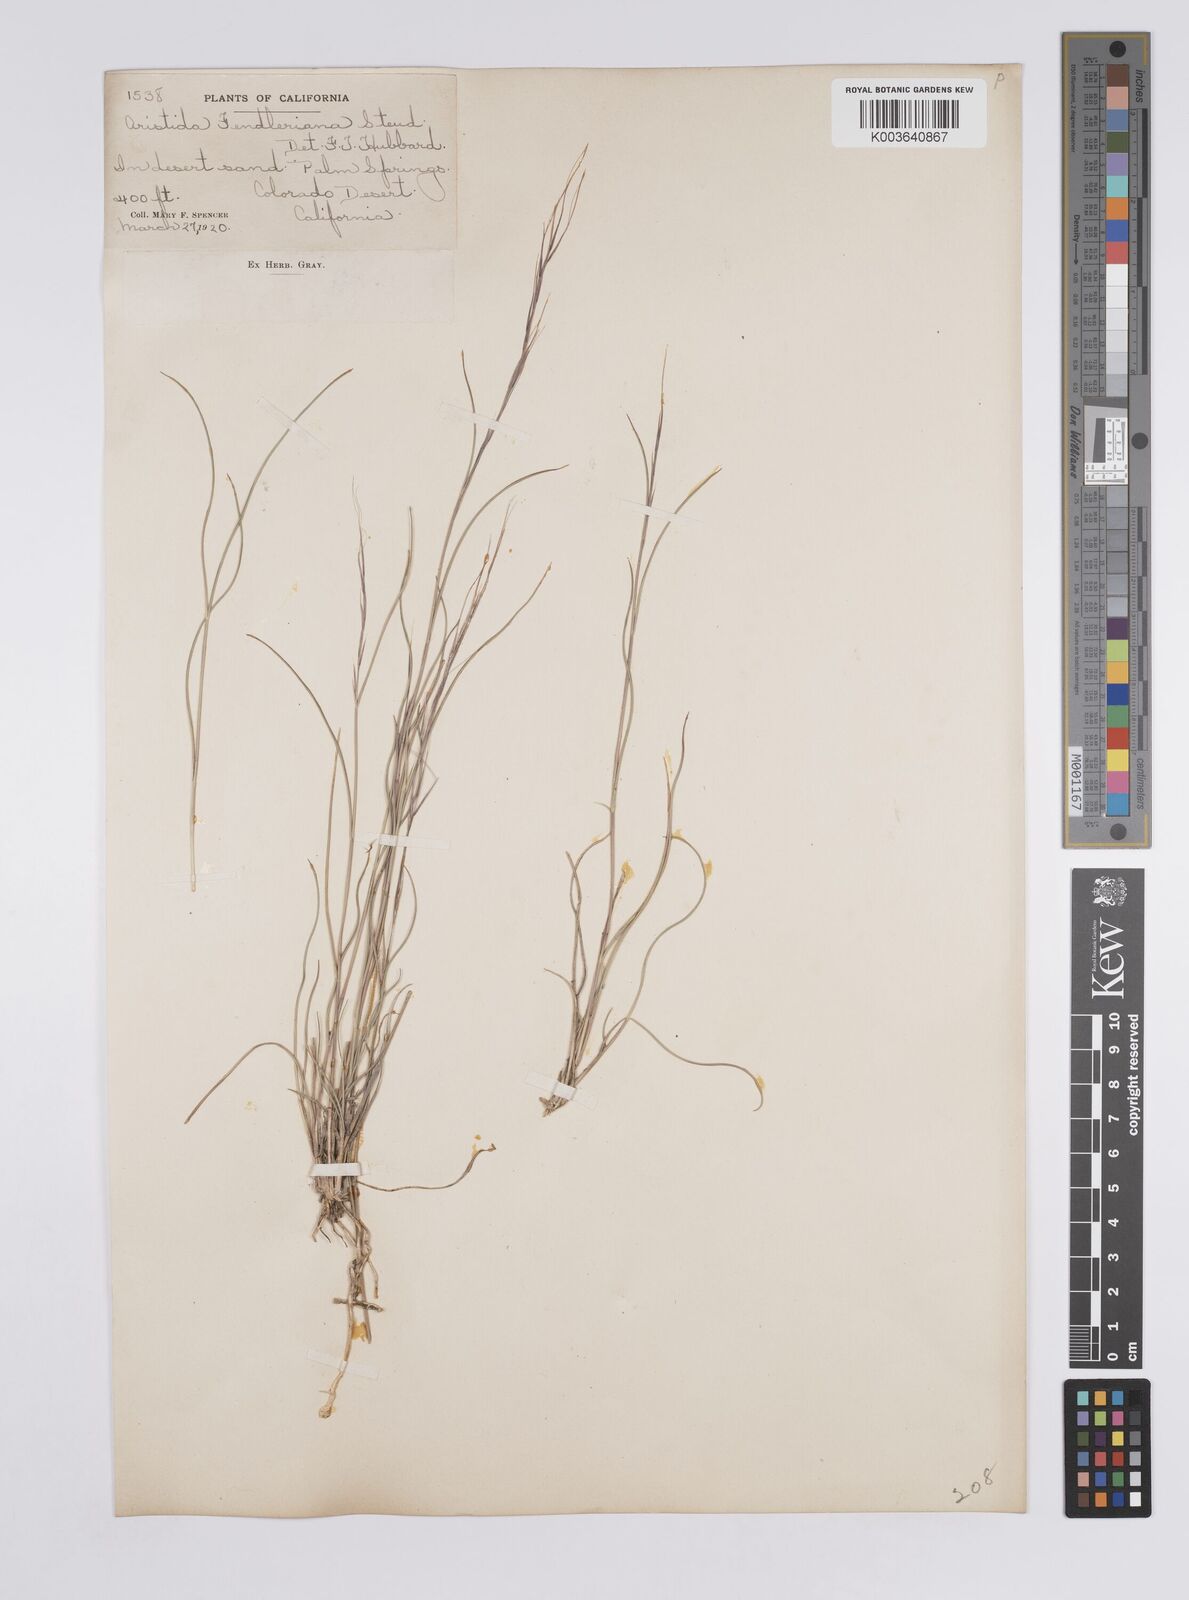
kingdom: Plantae
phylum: Tracheophyta
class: Liliopsida
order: Poales
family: Poaceae
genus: Aristida
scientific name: Aristida purpurea
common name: Purple threeawn
